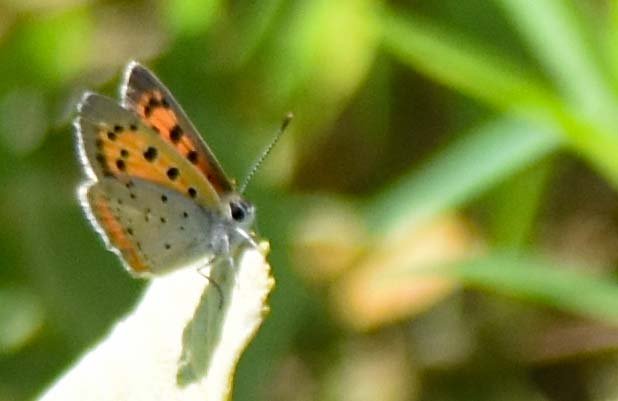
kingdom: Animalia
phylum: Arthropoda
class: Insecta
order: Lepidoptera
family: Lycaenidae
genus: Lycaena
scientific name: Lycaena phlaeas
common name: American Copper
